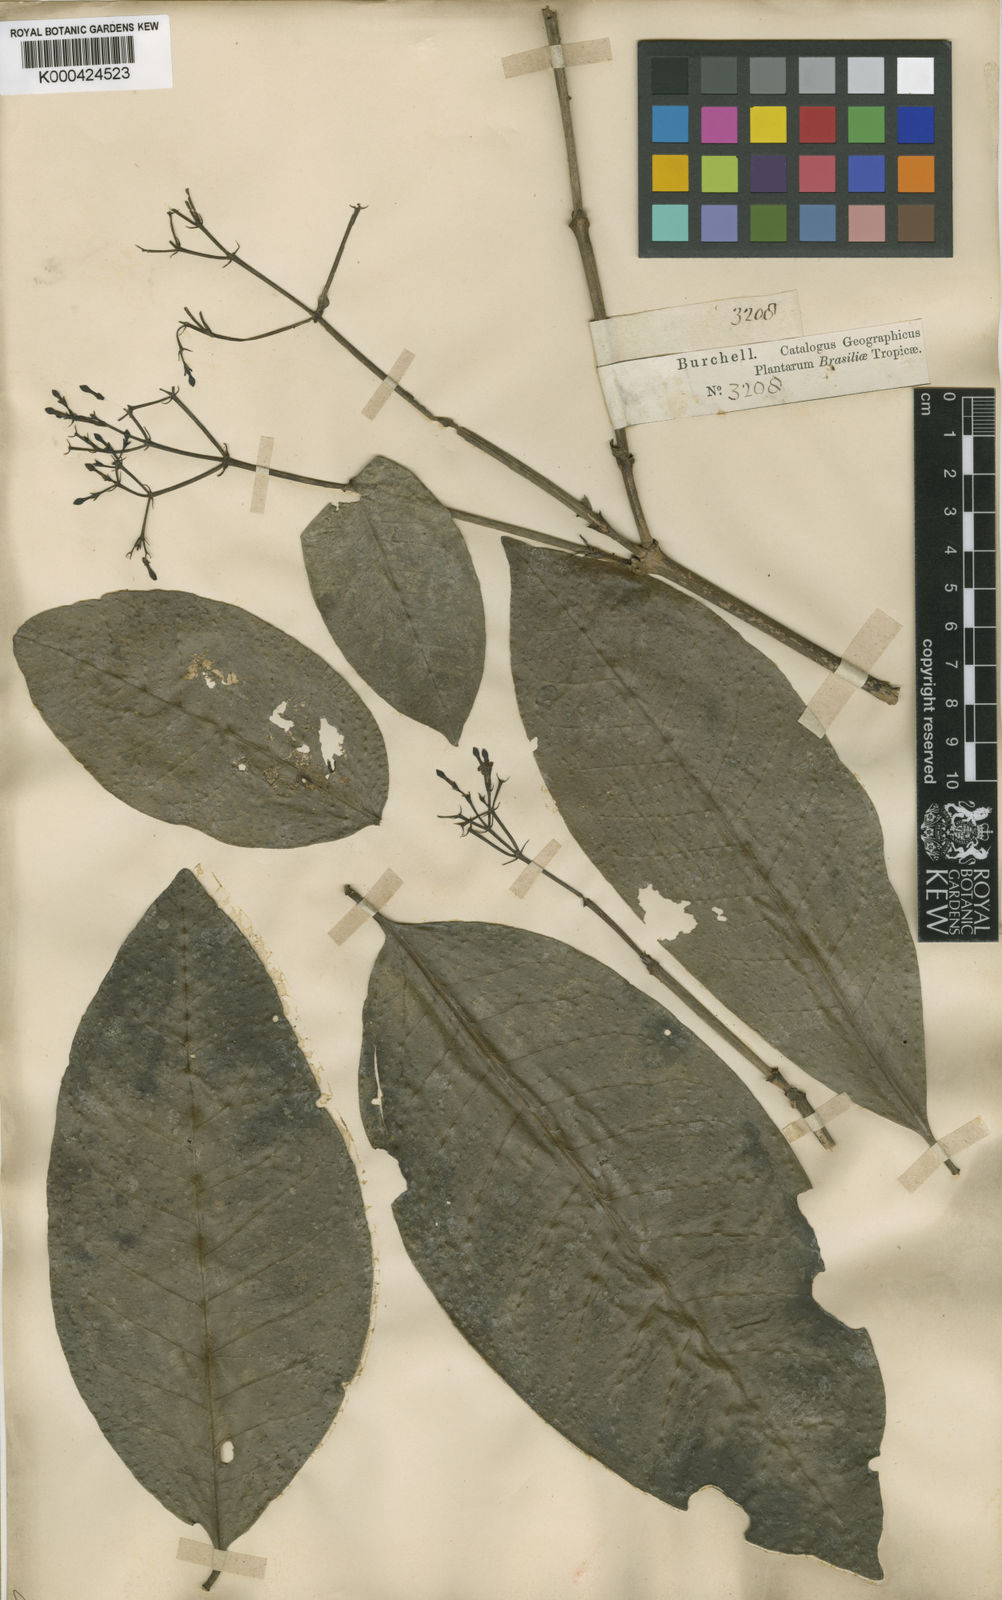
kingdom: Plantae
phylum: Tracheophyta
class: Magnoliopsida
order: Gentianales
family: Rubiaceae
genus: Ixora
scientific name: Ixora
